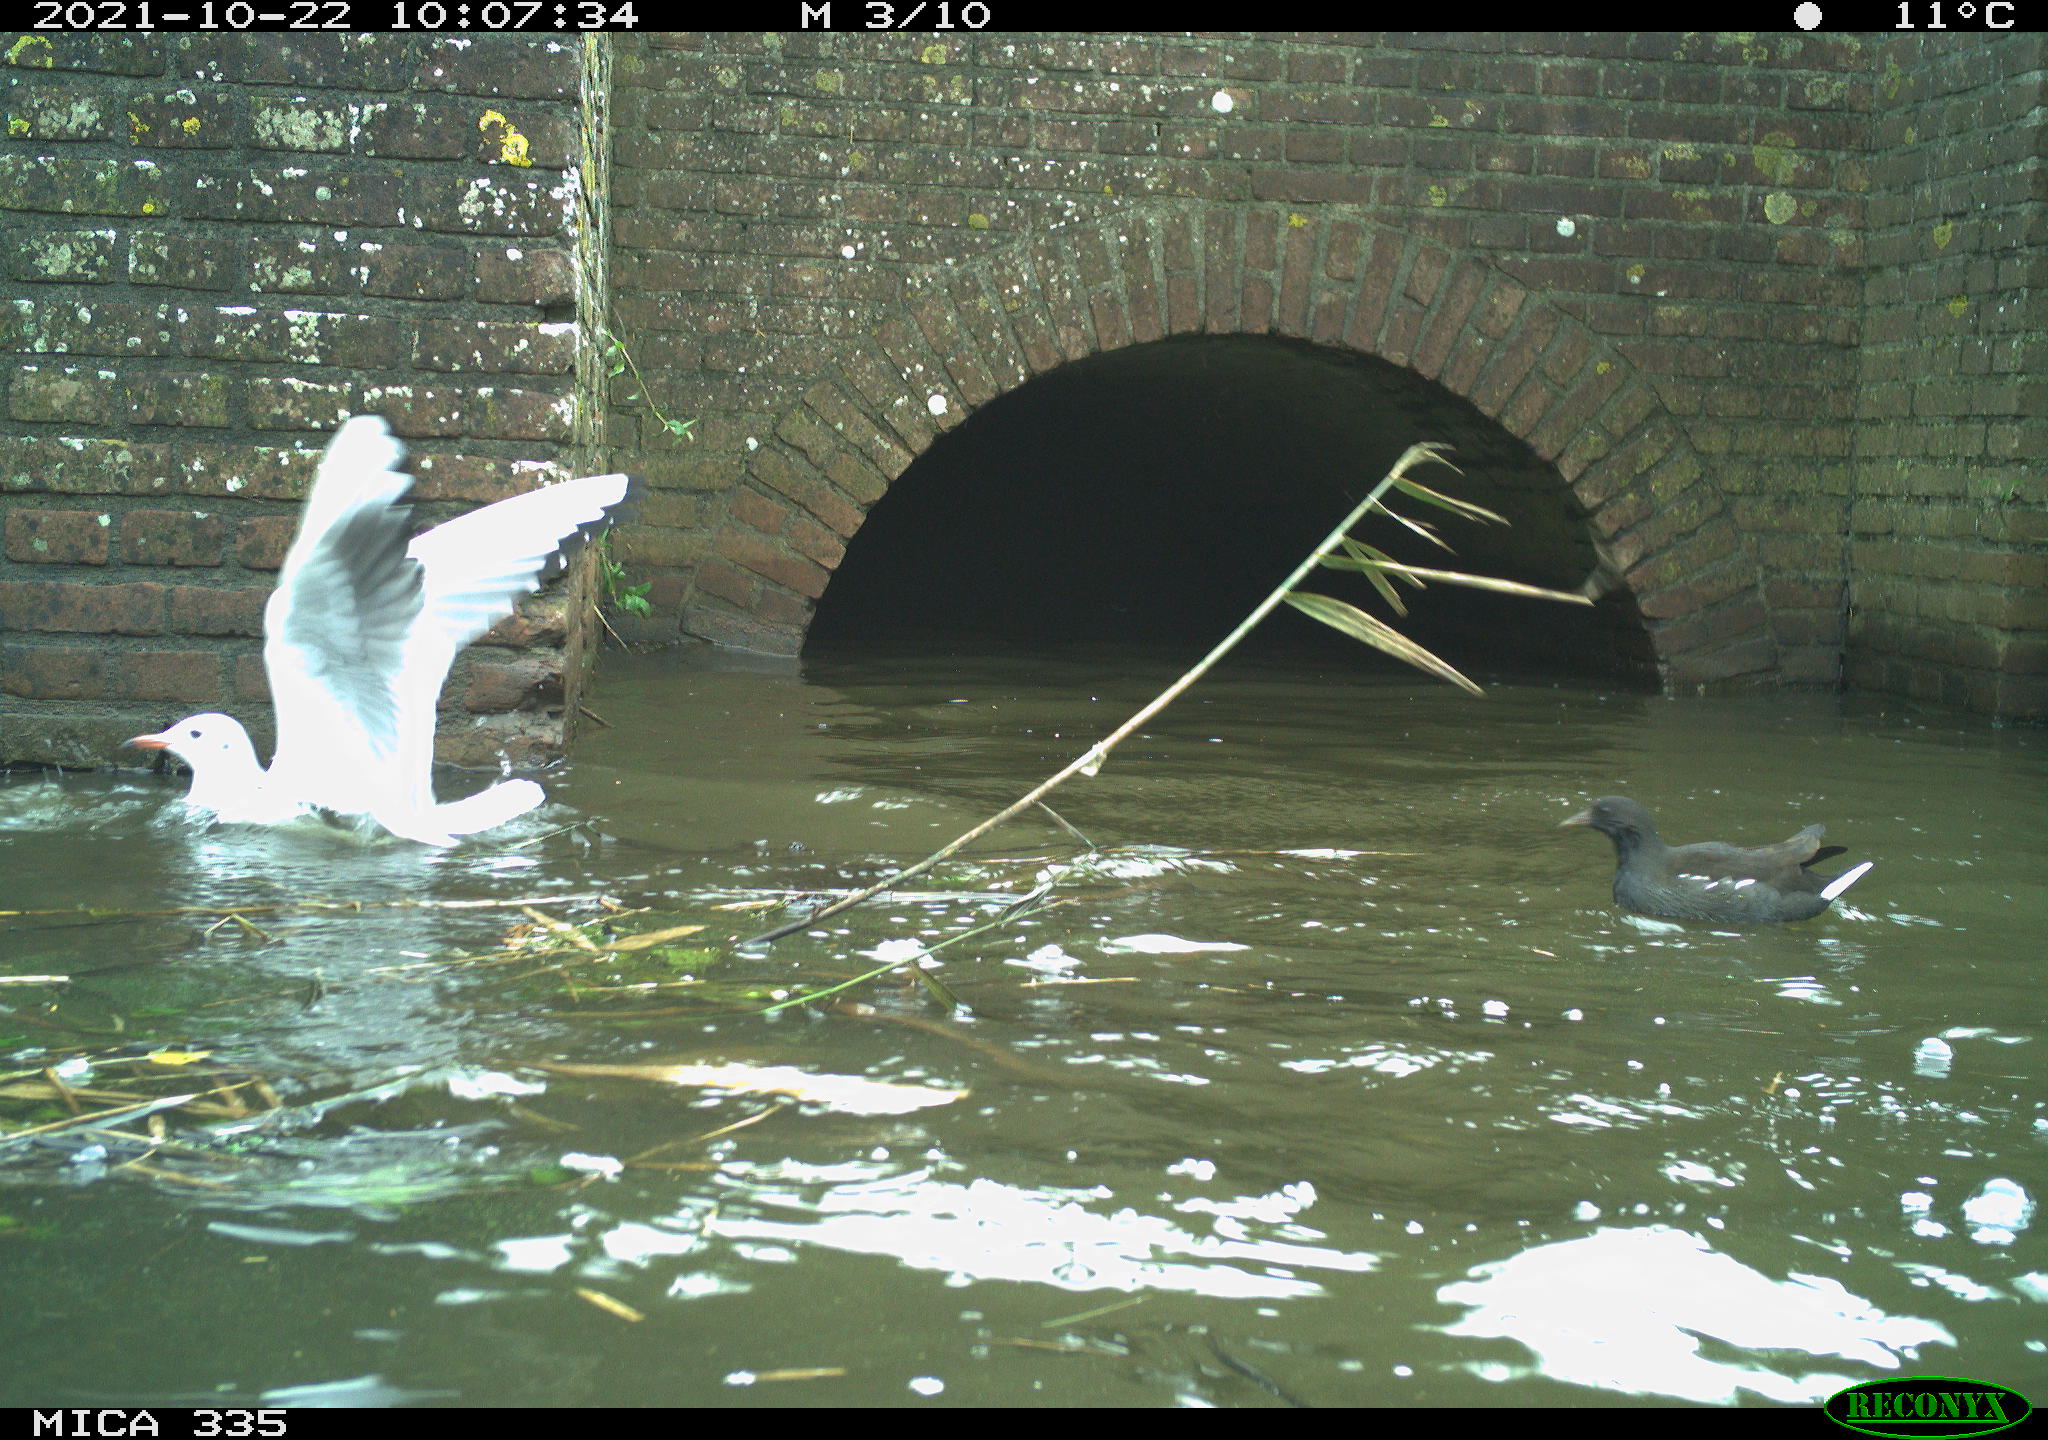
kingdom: Animalia
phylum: Chordata
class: Aves
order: Gruiformes
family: Rallidae
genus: Gallinula
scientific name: Gallinula chloropus
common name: Common moorhen
